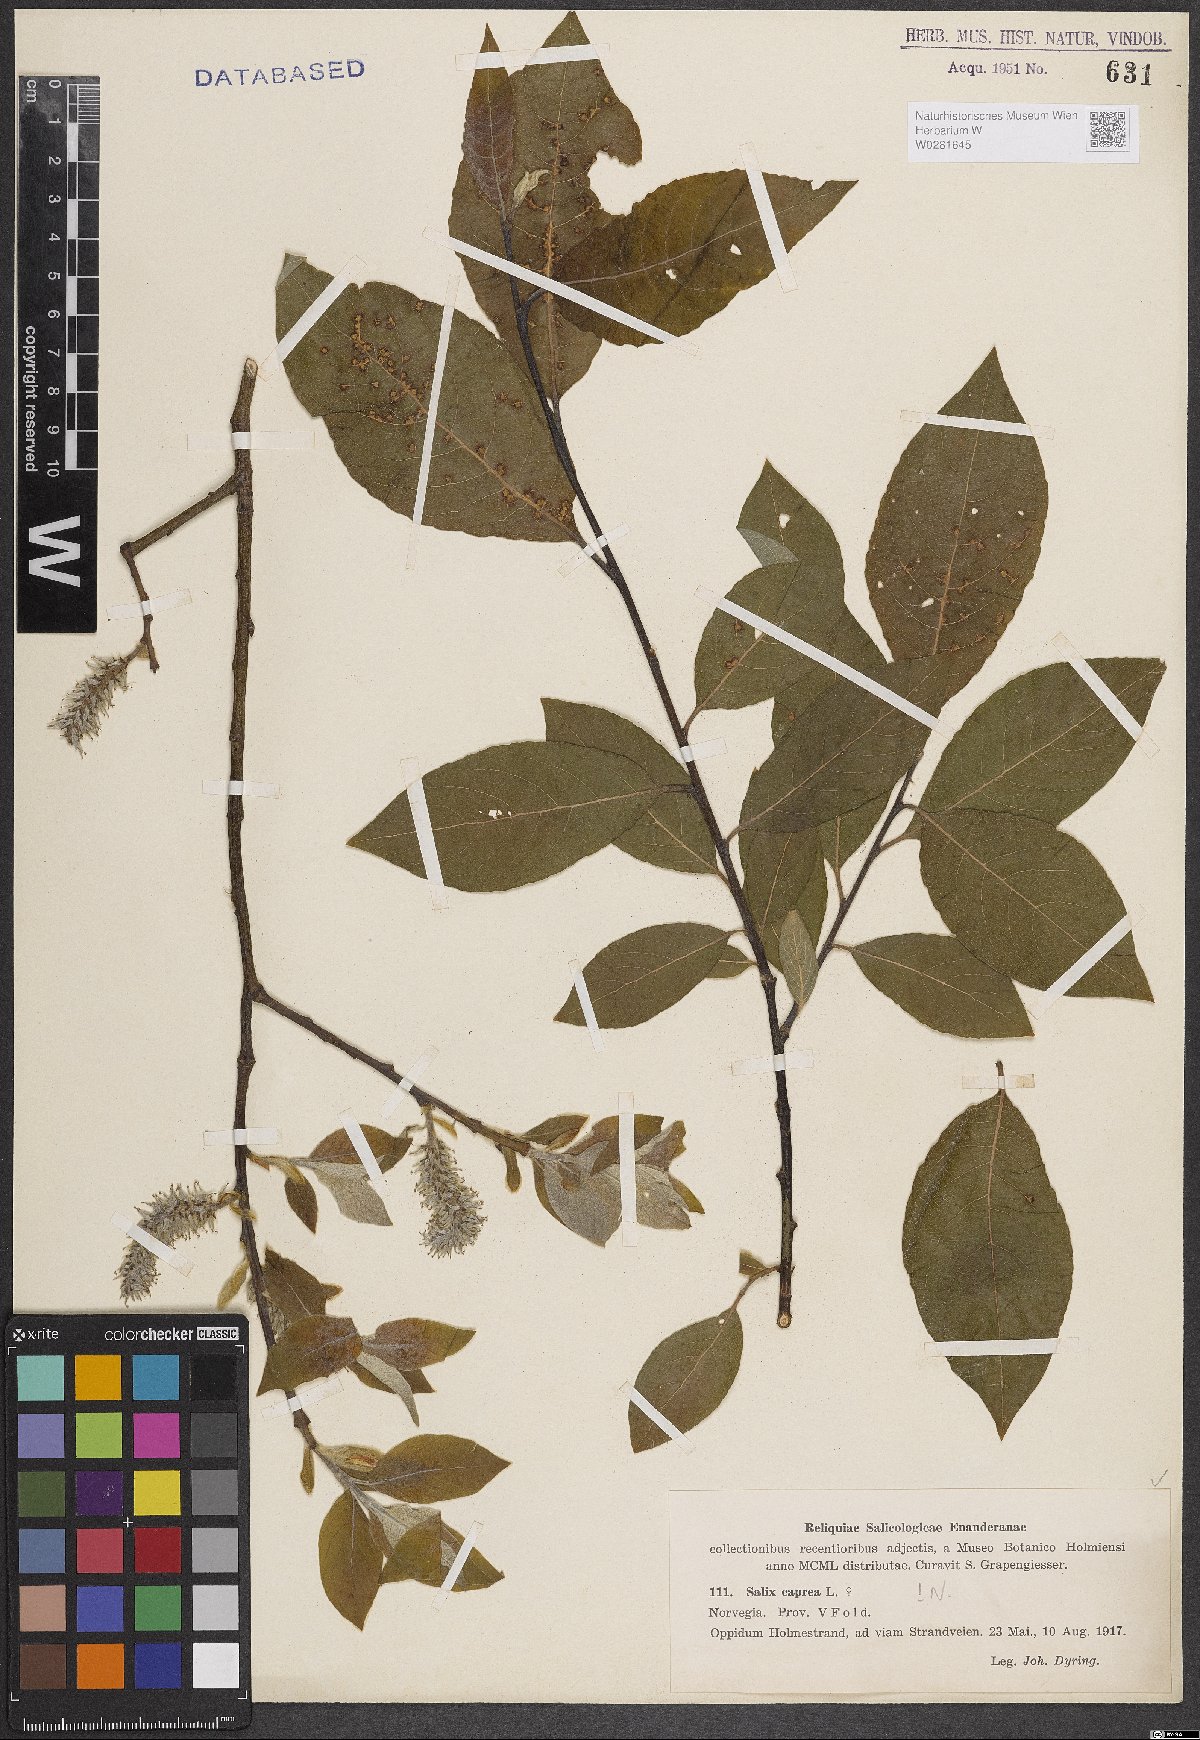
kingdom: Plantae
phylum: Tracheophyta
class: Magnoliopsida
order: Malpighiales
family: Salicaceae
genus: Salix
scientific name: Salix caprea
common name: Goat willow
